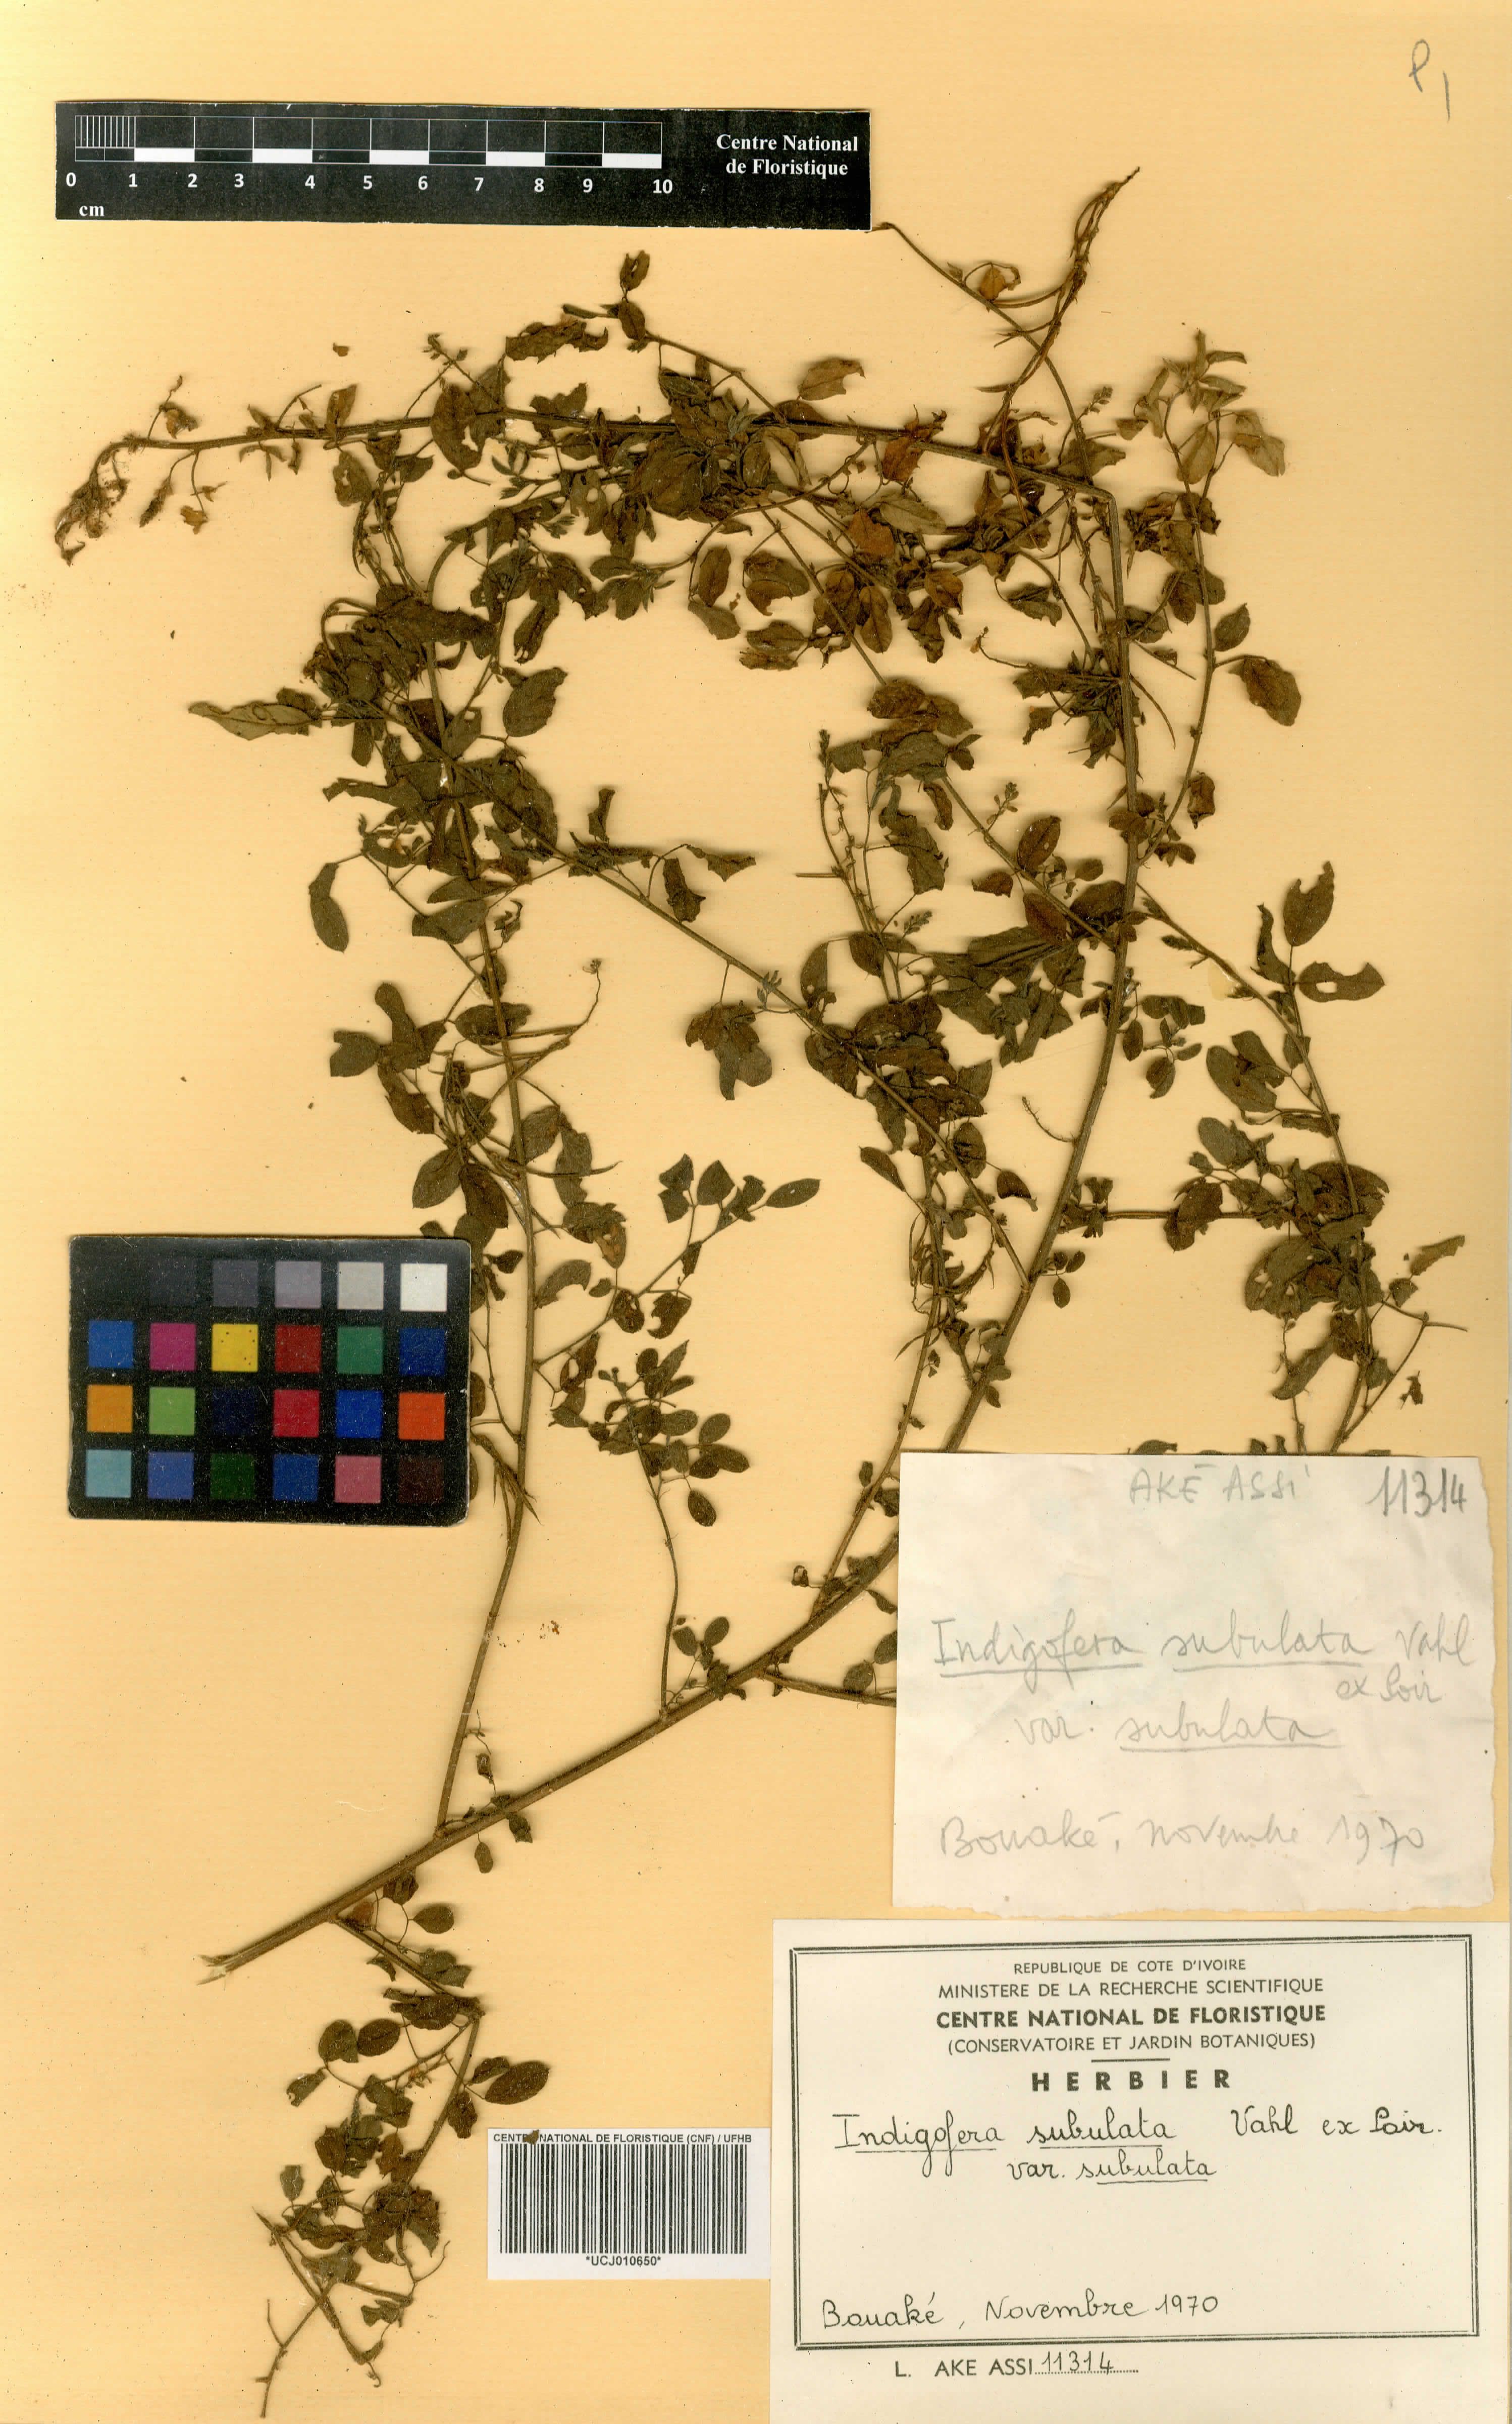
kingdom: Plantae
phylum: Tracheophyta
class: Magnoliopsida
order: Fabales
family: Fabaceae
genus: Indigofera
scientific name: Indigofera suffruticosa
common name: Anil de pasto
